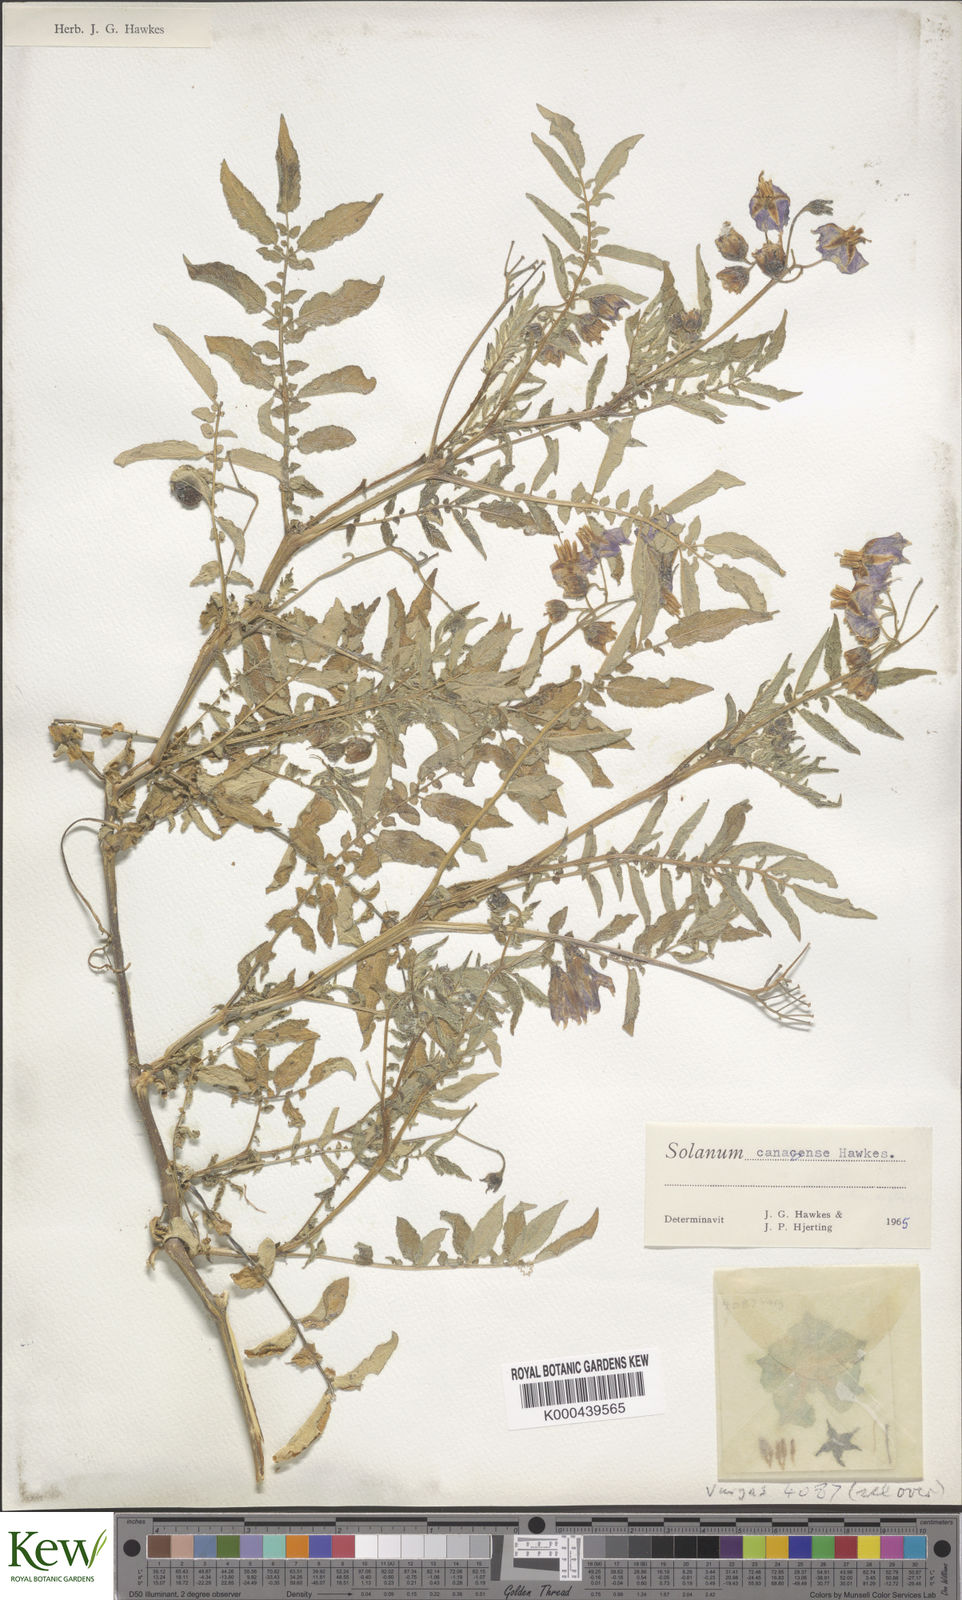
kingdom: Plantae
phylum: Tracheophyta
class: Magnoliopsida
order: Solanales
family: Solanaceae
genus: Solanum
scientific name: Solanum candolleanum
